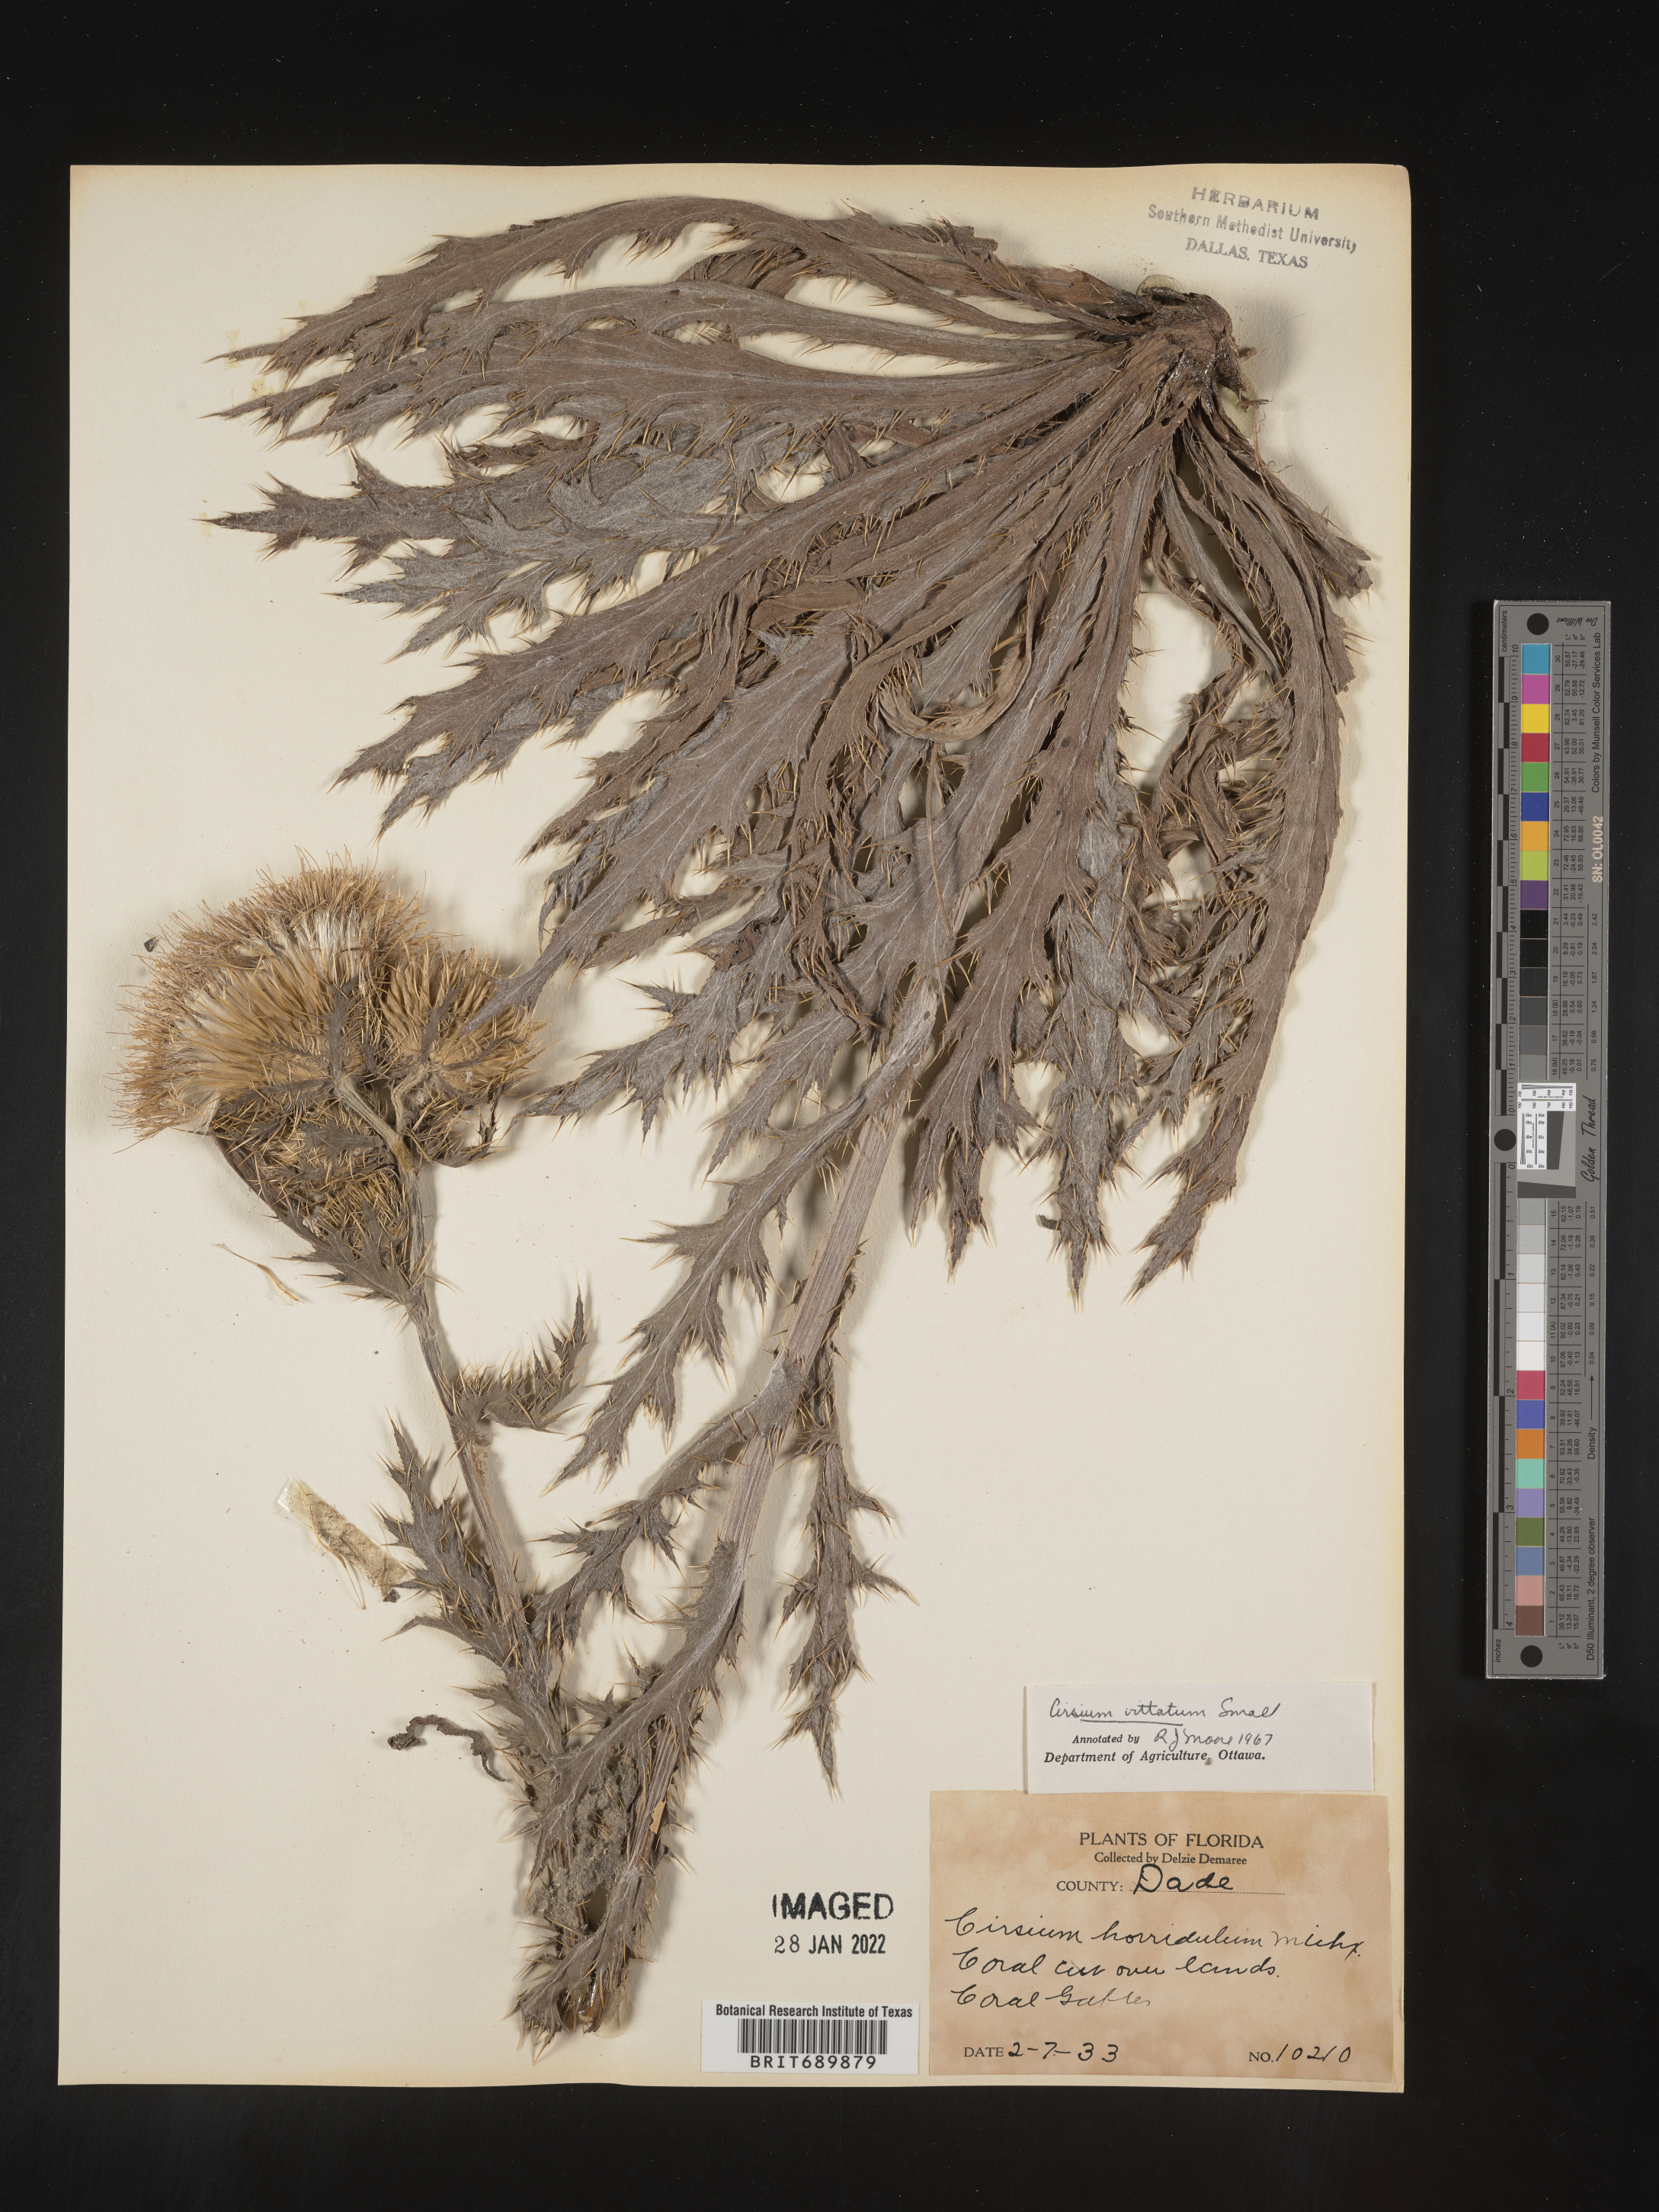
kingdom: Plantae
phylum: Tracheophyta
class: Magnoliopsida
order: Asterales
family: Asteraceae
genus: Cirsium
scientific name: Cirsium
